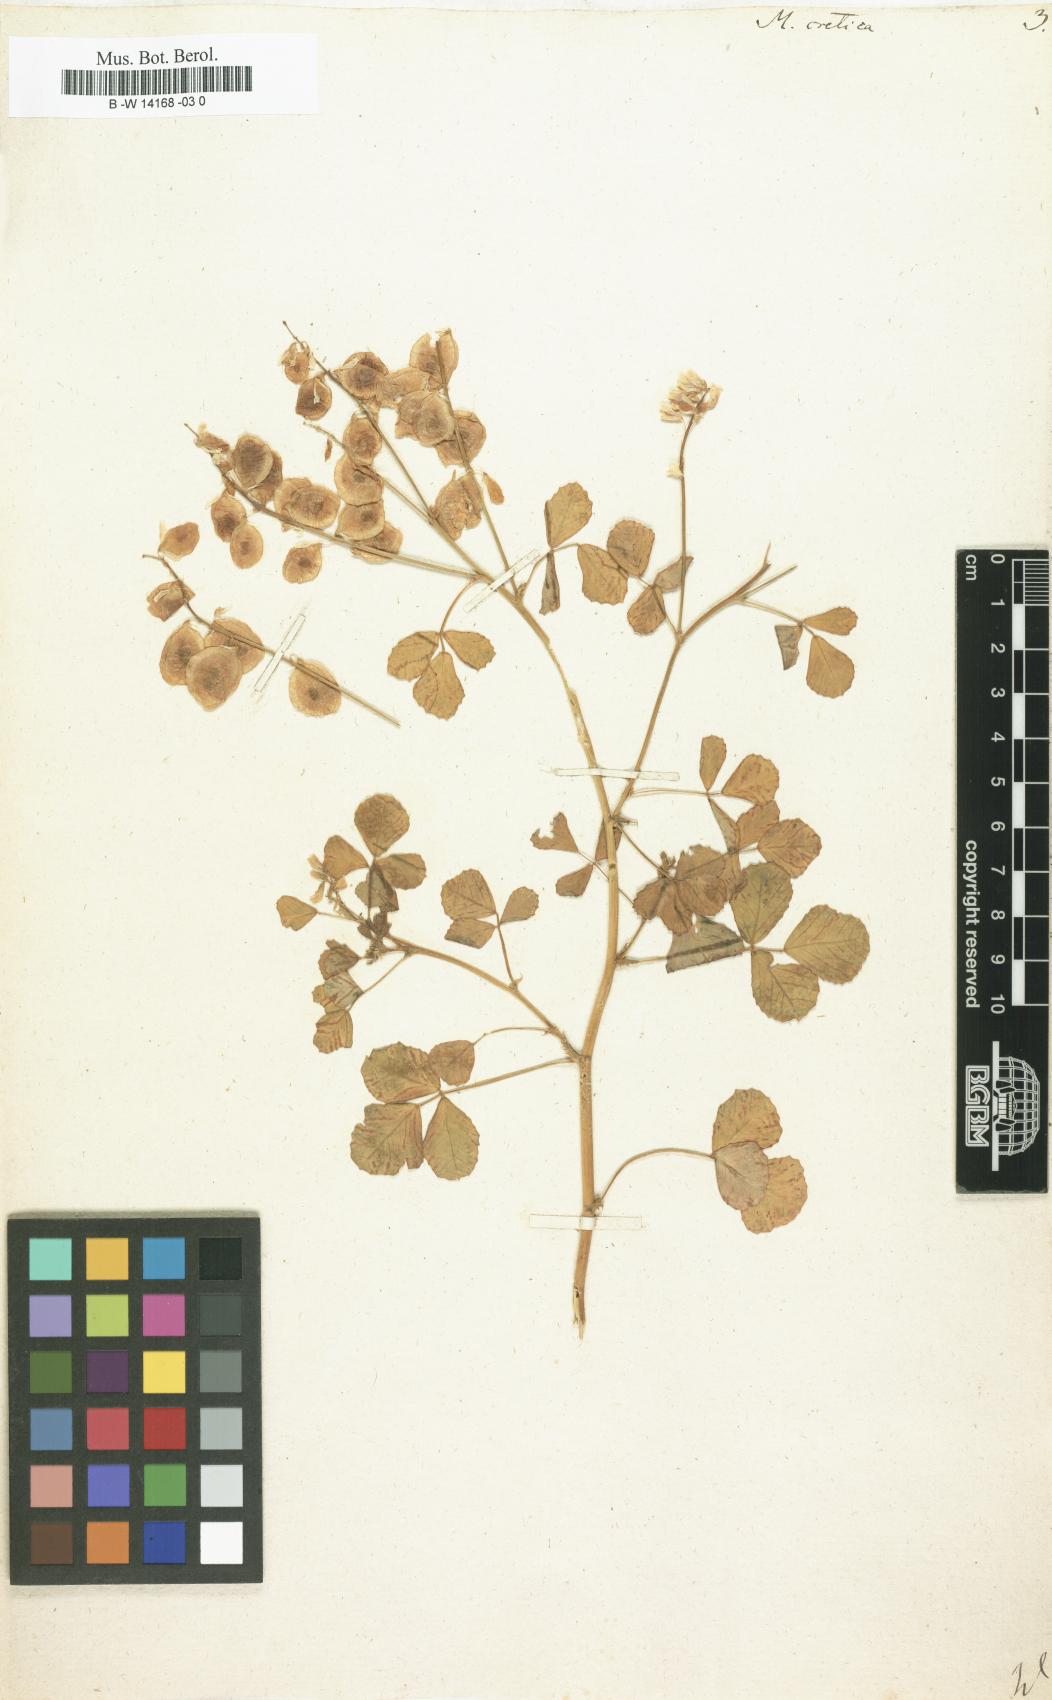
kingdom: Plantae
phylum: Tracheophyta
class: Magnoliopsida
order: Fabales
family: Fabaceae
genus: Trigonella
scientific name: Trigonella cretica
